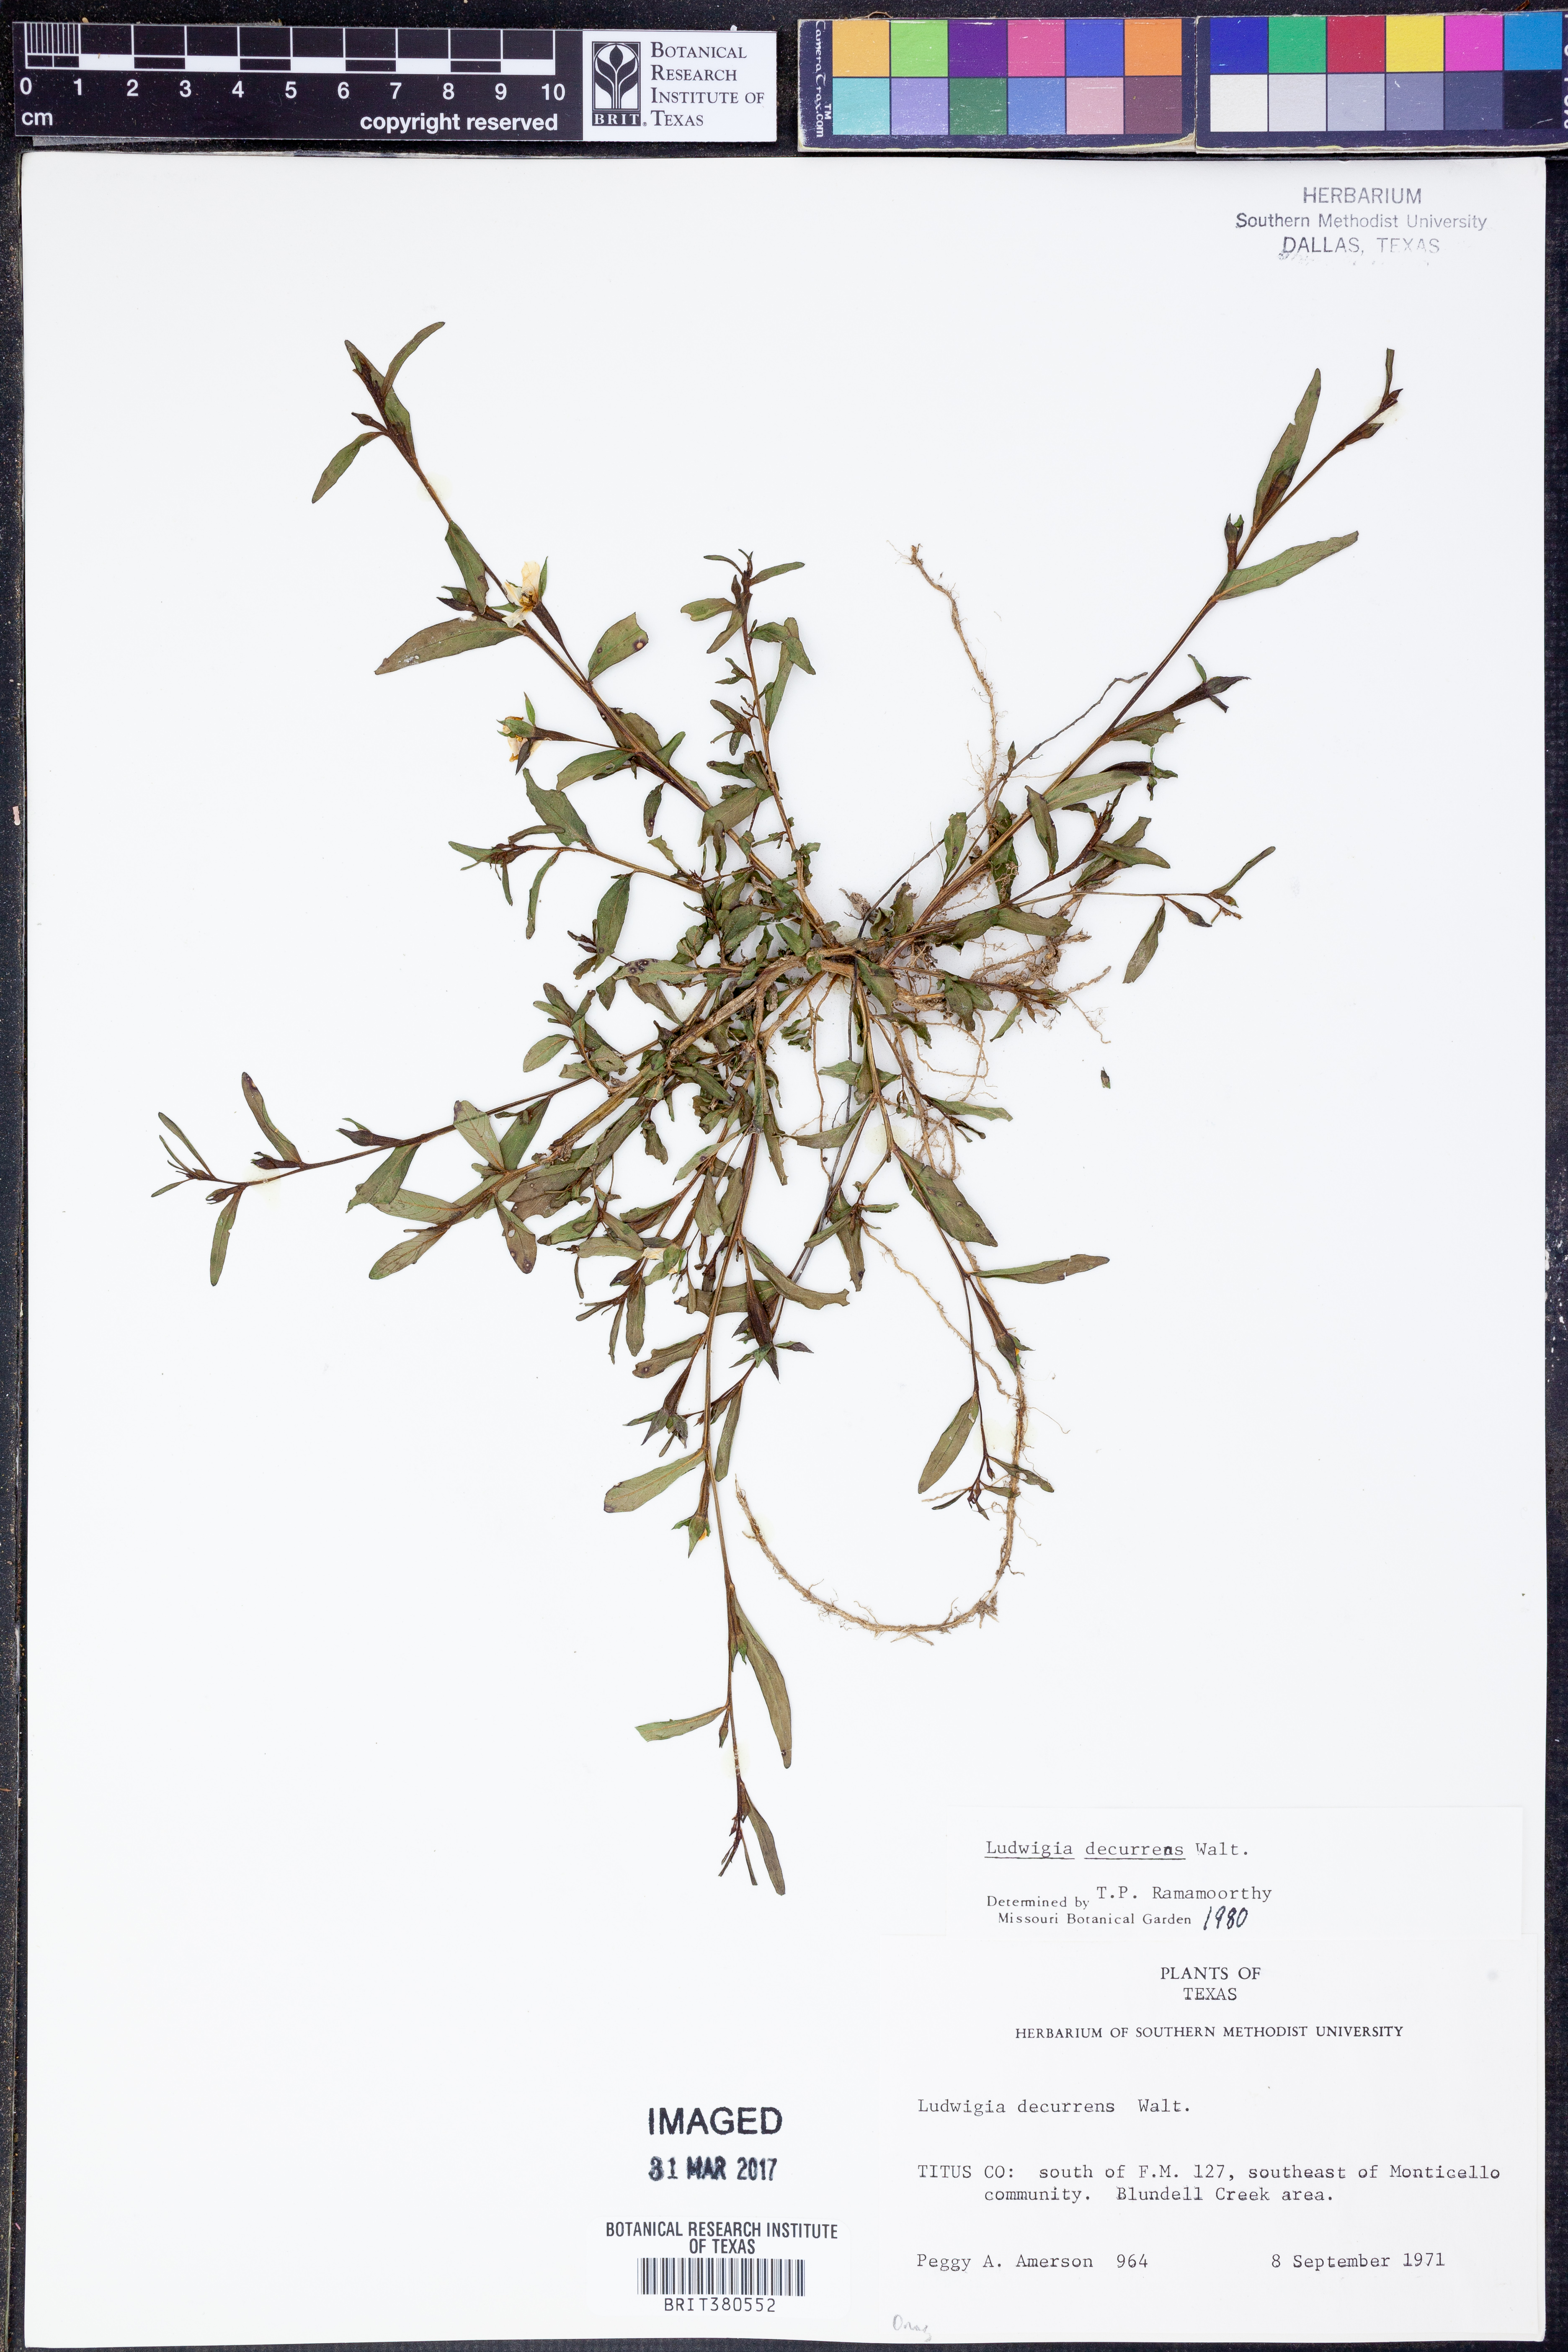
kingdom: Plantae
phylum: Tracheophyta
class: Magnoliopsida
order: Myrtales
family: Onagraceae
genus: Ludwigia
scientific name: Ludwigia decurrens
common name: Winged water-primrose
